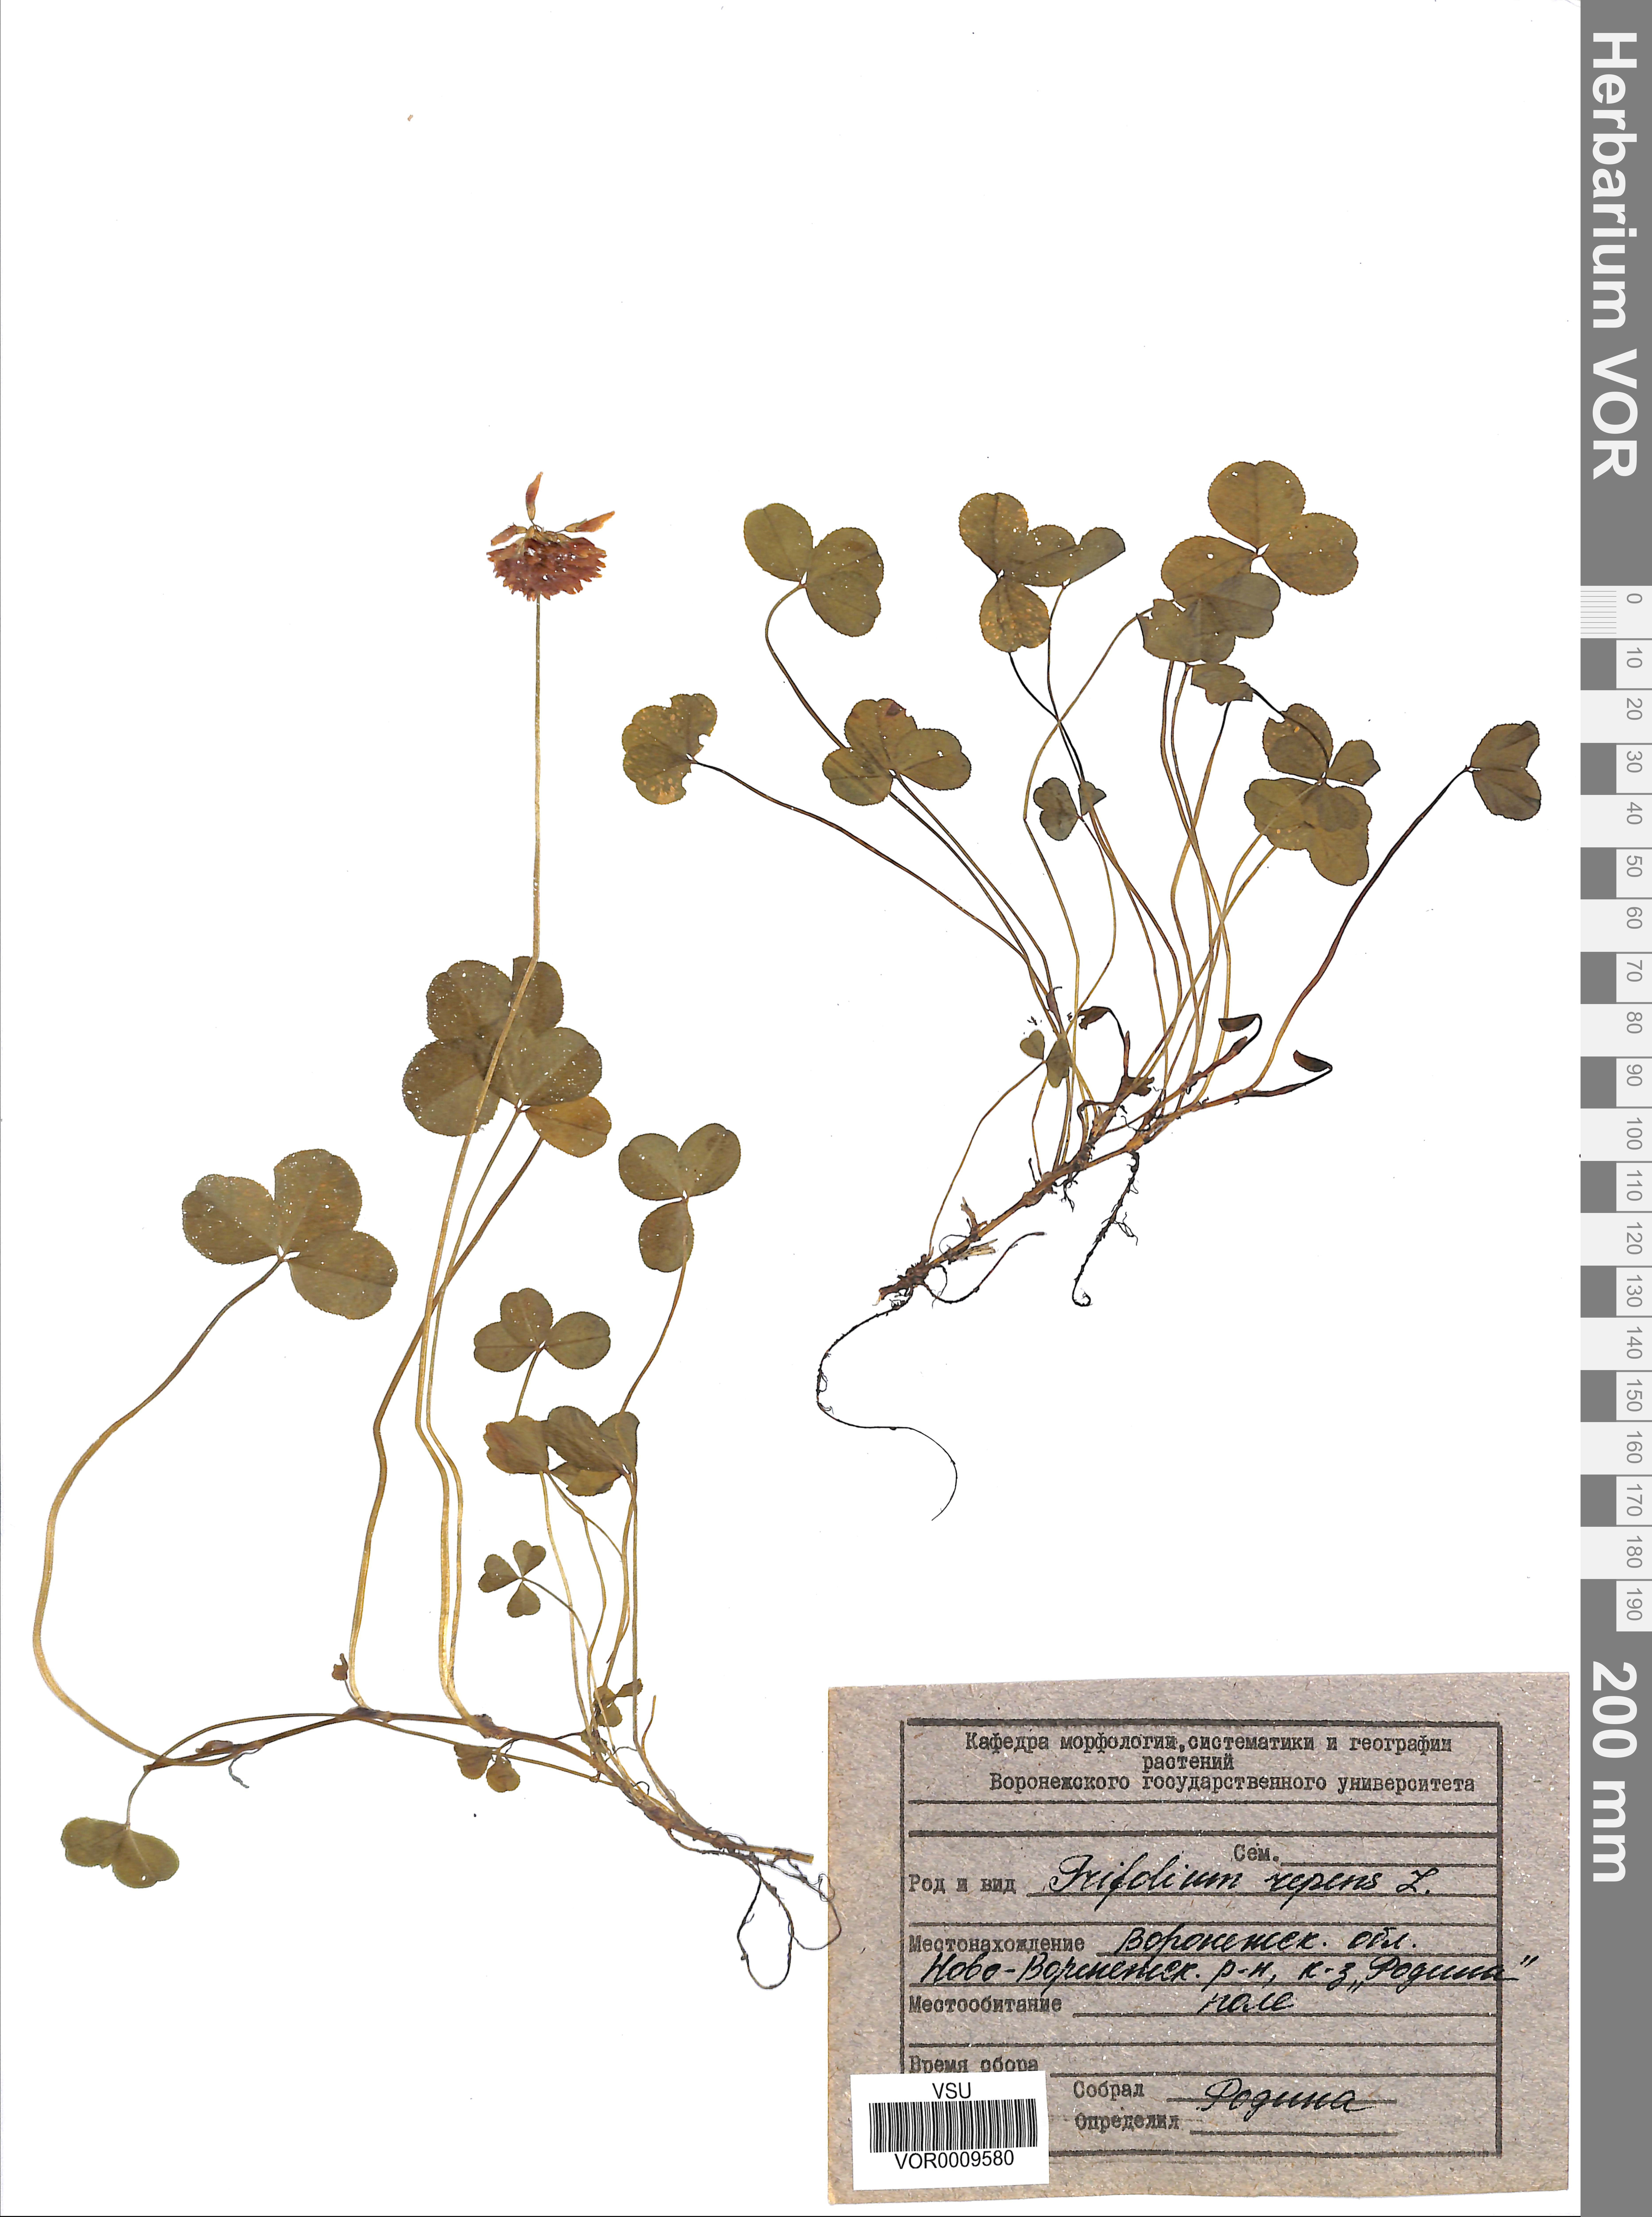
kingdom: Plantae
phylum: Tracheophyta
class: Magnoliopsida
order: Fabales
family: Fabaceae
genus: Trifolium
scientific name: Trifolium repens
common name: White clover
